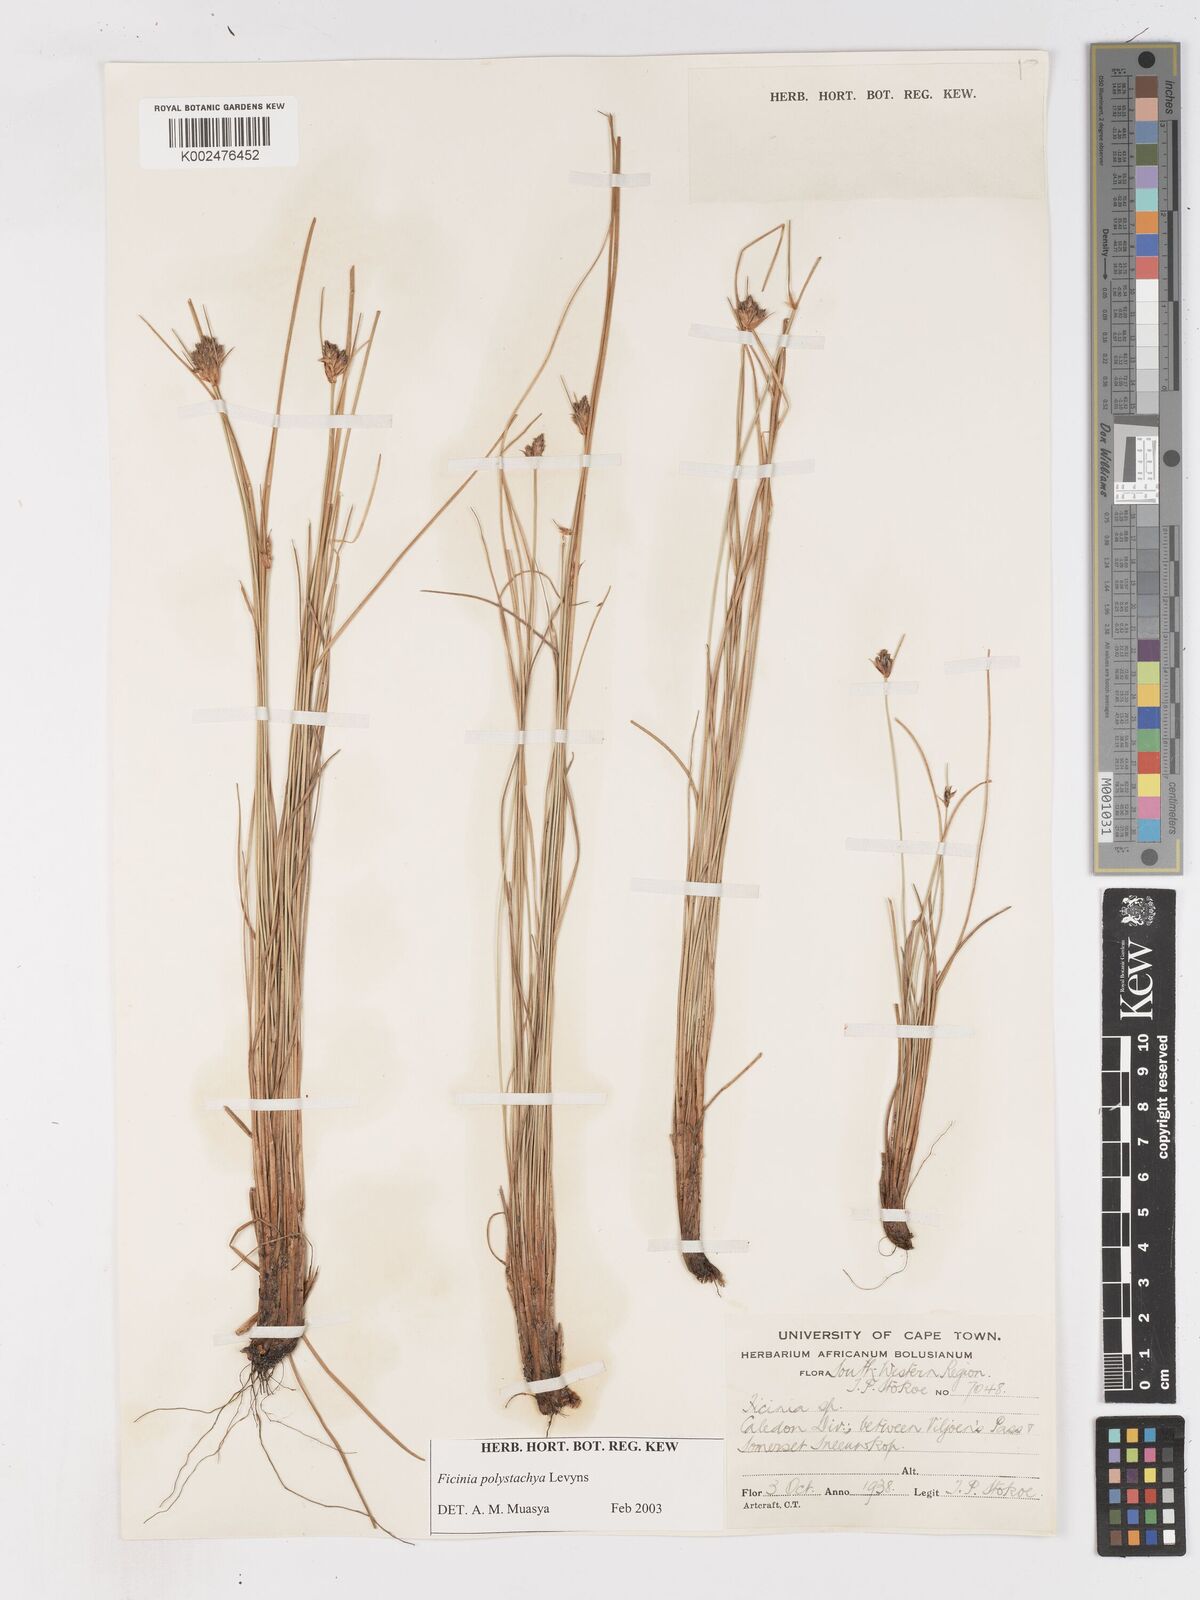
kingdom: Plantae
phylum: Tracheophyta
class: Liliopsida
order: Poales
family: Cyperaceae
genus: Ficinia
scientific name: Ficinia polystachya
